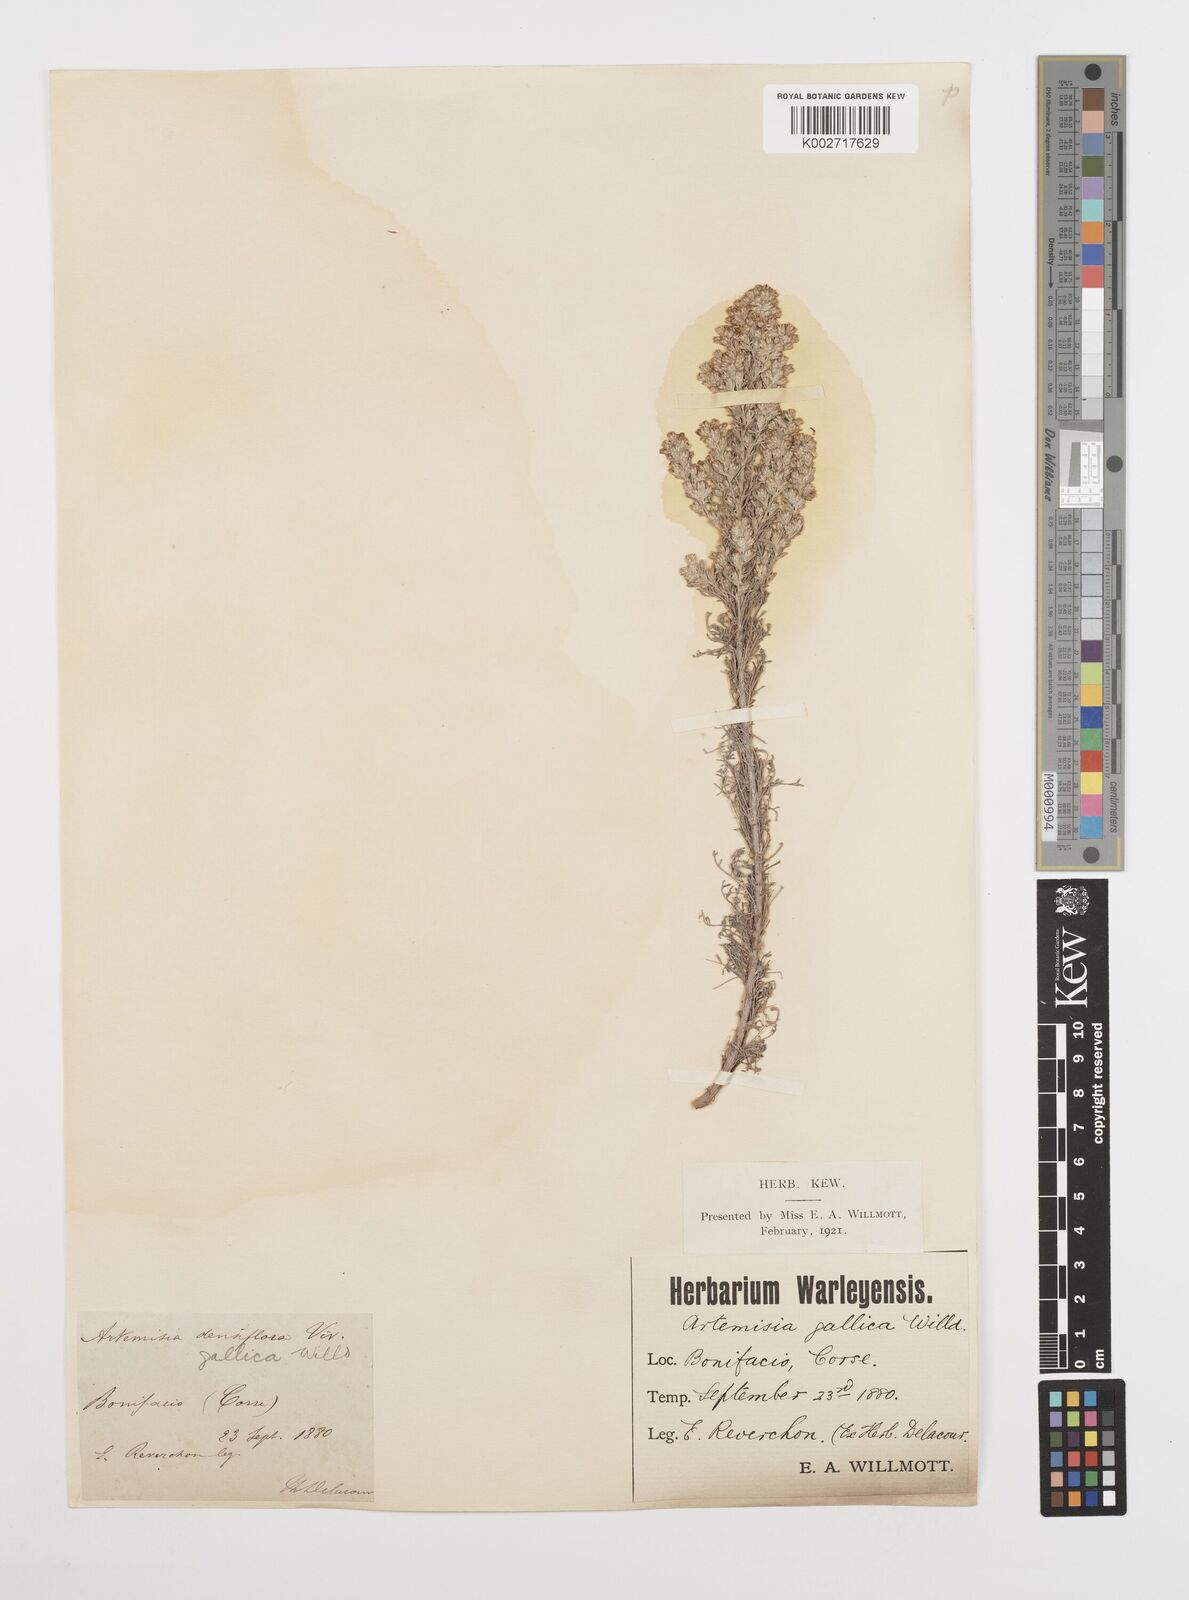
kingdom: Plantae
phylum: Tracheophyta
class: Magnoliopsida
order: Asterales
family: Asteraceae
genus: Artemisia
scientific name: Artemisia campestris
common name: Field wormwood
